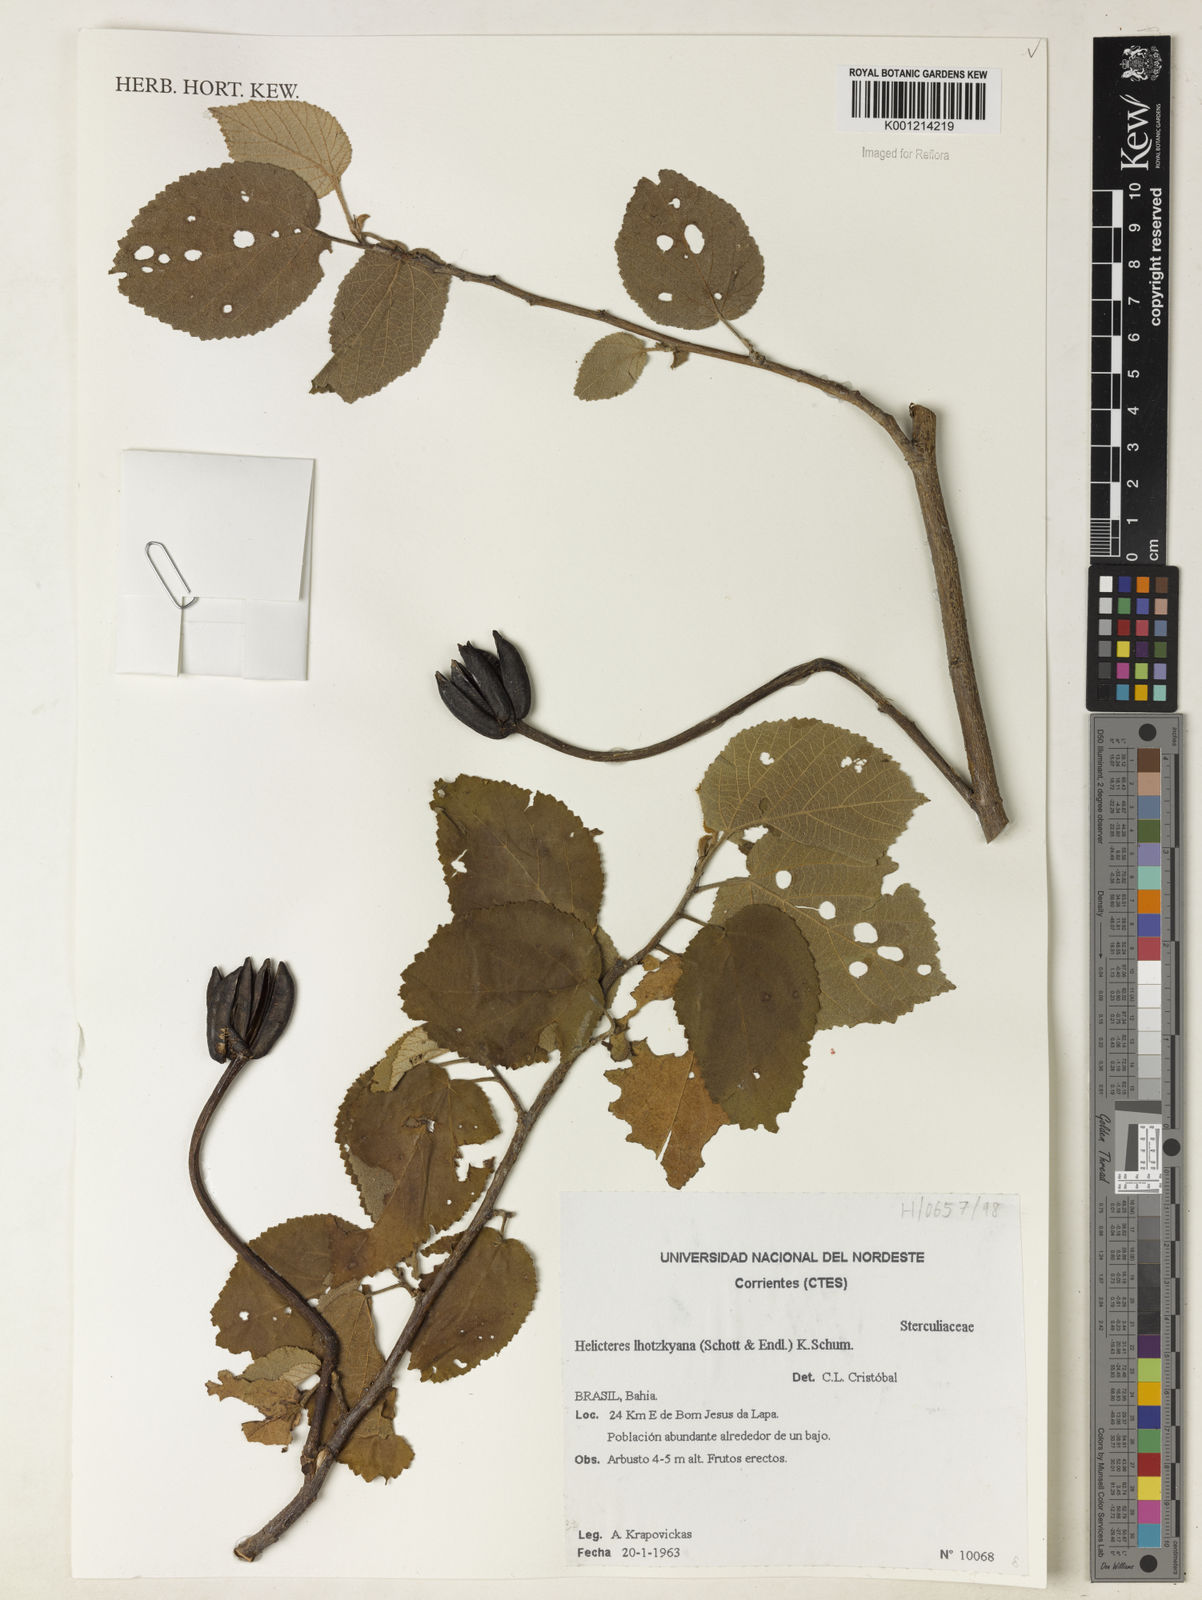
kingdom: Plantae
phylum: Tracheophyta
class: Magnoliopsida
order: Malvales
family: Malvaceae
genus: Helicteres
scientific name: Helicteres lhotzkyana
